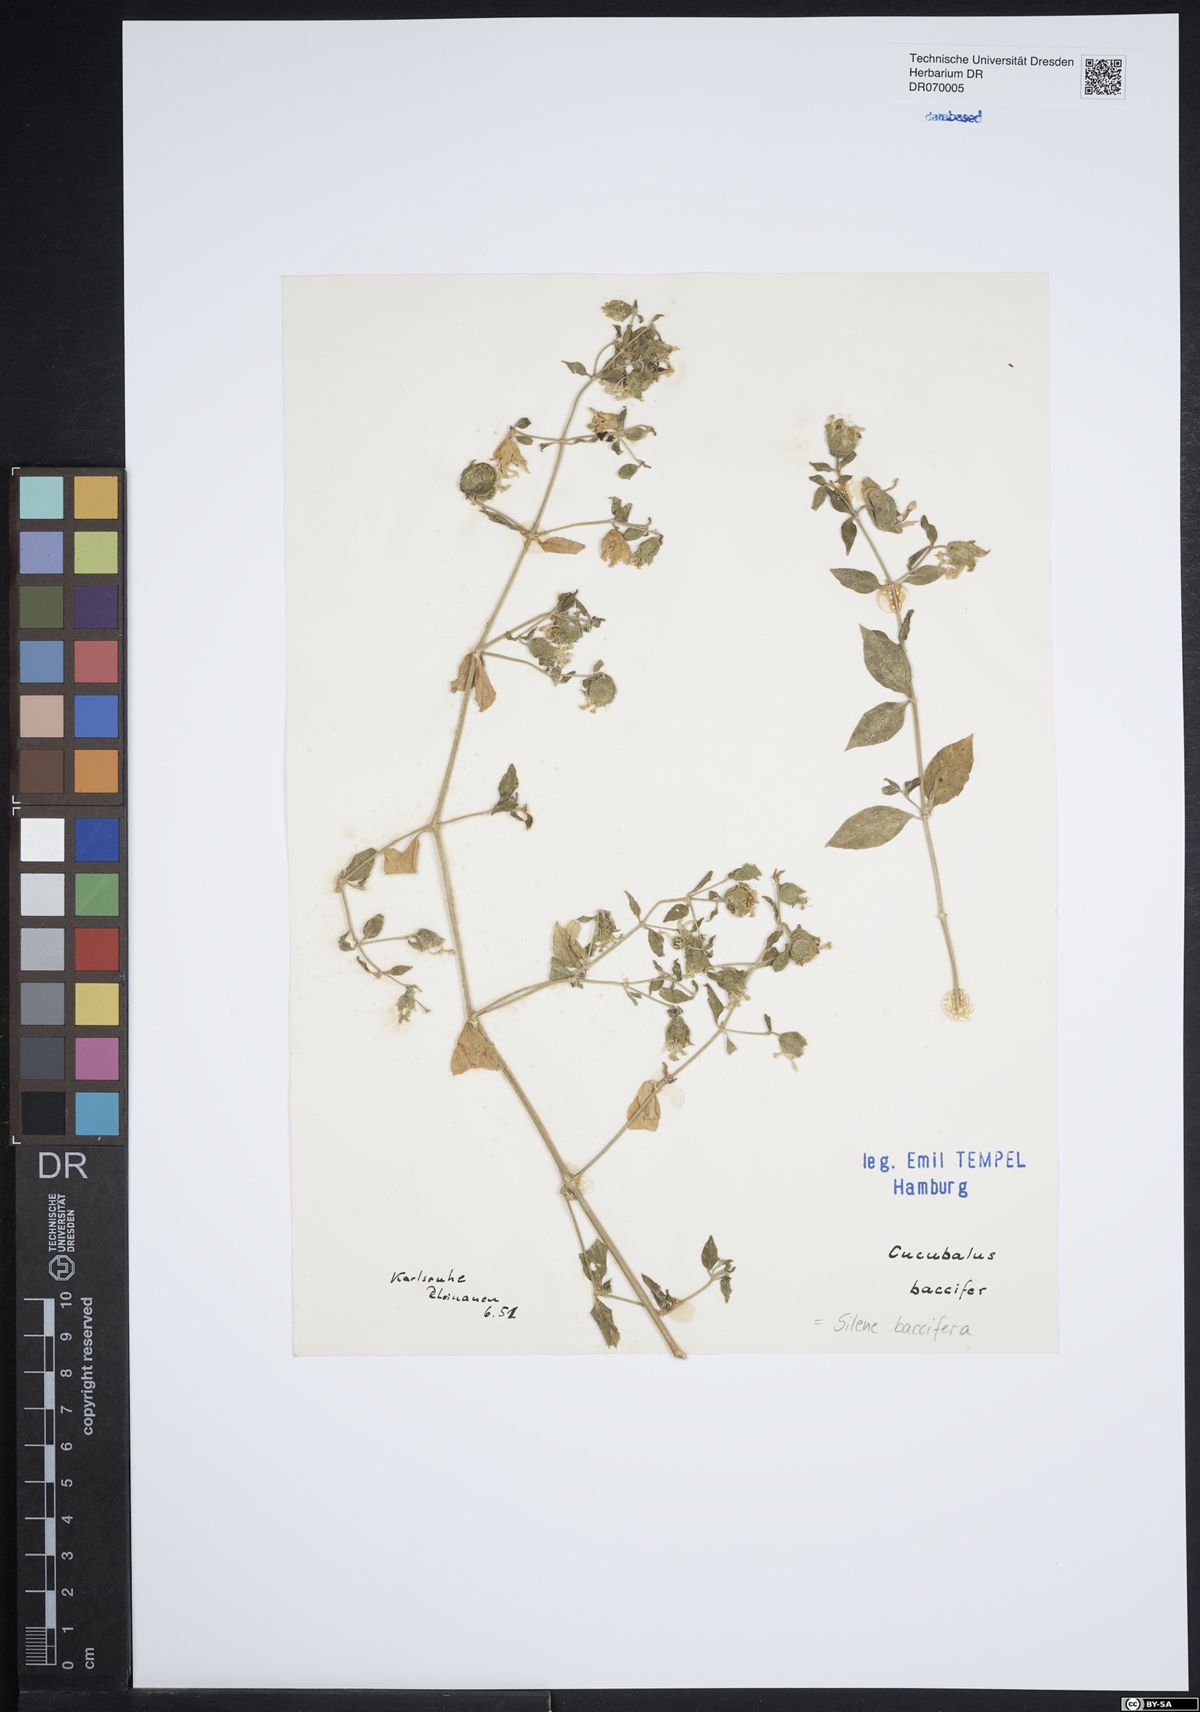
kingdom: Plantae
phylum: Tracheophyta
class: Magnoliopsida
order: Caryophyllales
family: Caryophyllaceae
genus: Silene
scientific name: Silene baccifera
